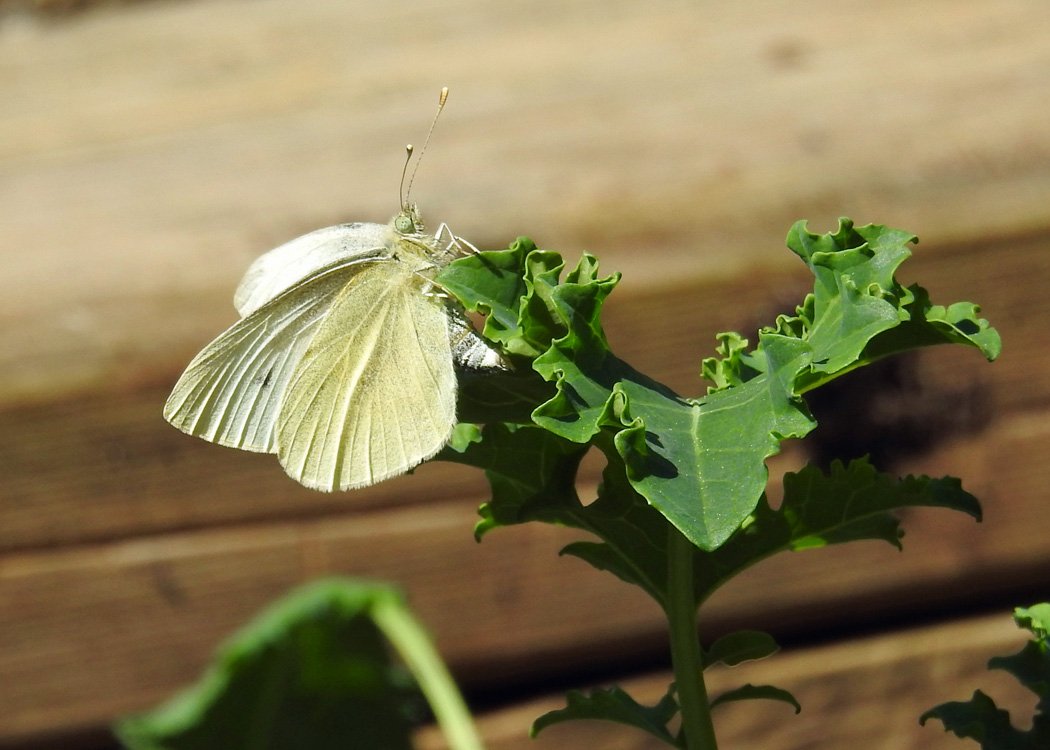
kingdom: Animalia
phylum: Arthropoda
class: Insecta
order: Lepidoptera
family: Pieridae
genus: Pieris
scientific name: Pieris rapae
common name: Cabbage White
